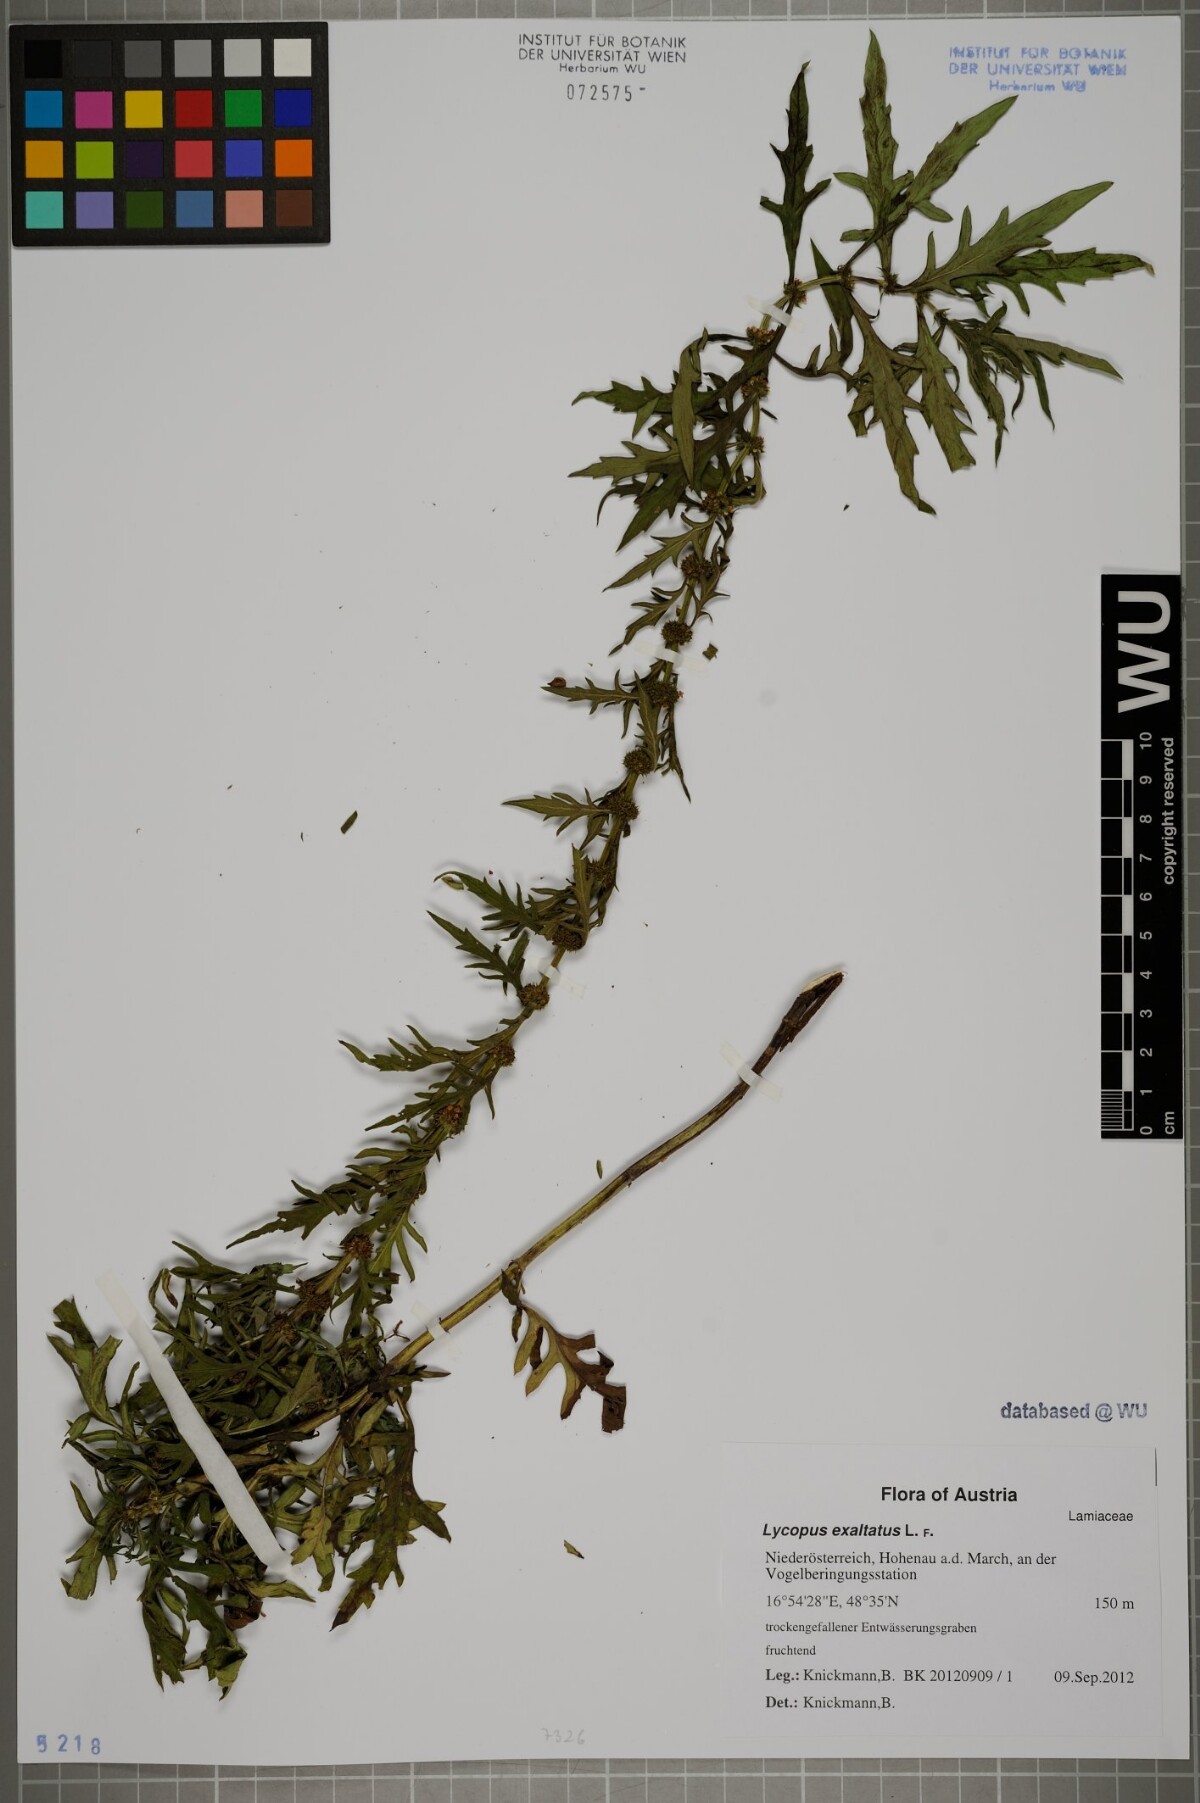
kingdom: Plantae
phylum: Tracheophyta
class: Magnoliopsida
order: Lamiales
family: Lamiaceae
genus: Lycopus
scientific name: Lycopus exaltatus
